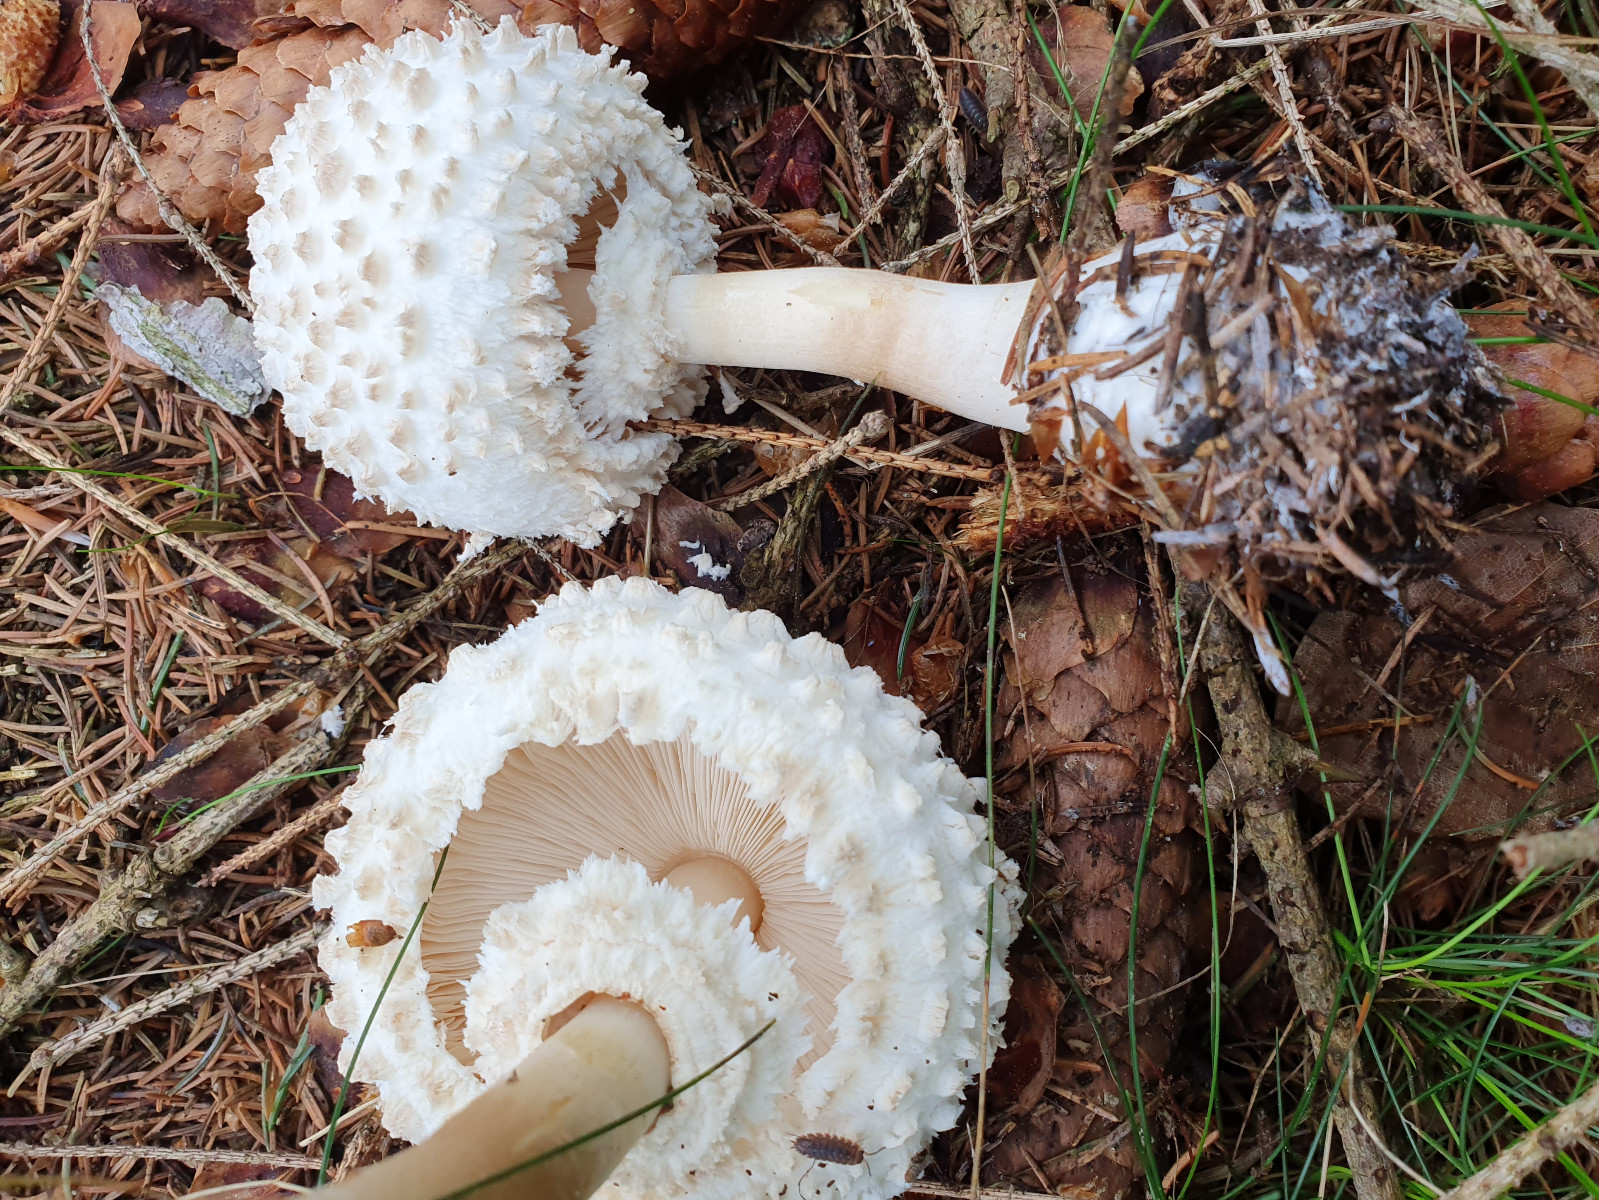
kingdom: Fungi
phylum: Basidiomycota
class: Agaricomycetes
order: Agaricales
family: Agaricaceae
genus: Leucoagaricus
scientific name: Leucoagaricus nympharum
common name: gran-silkehat
